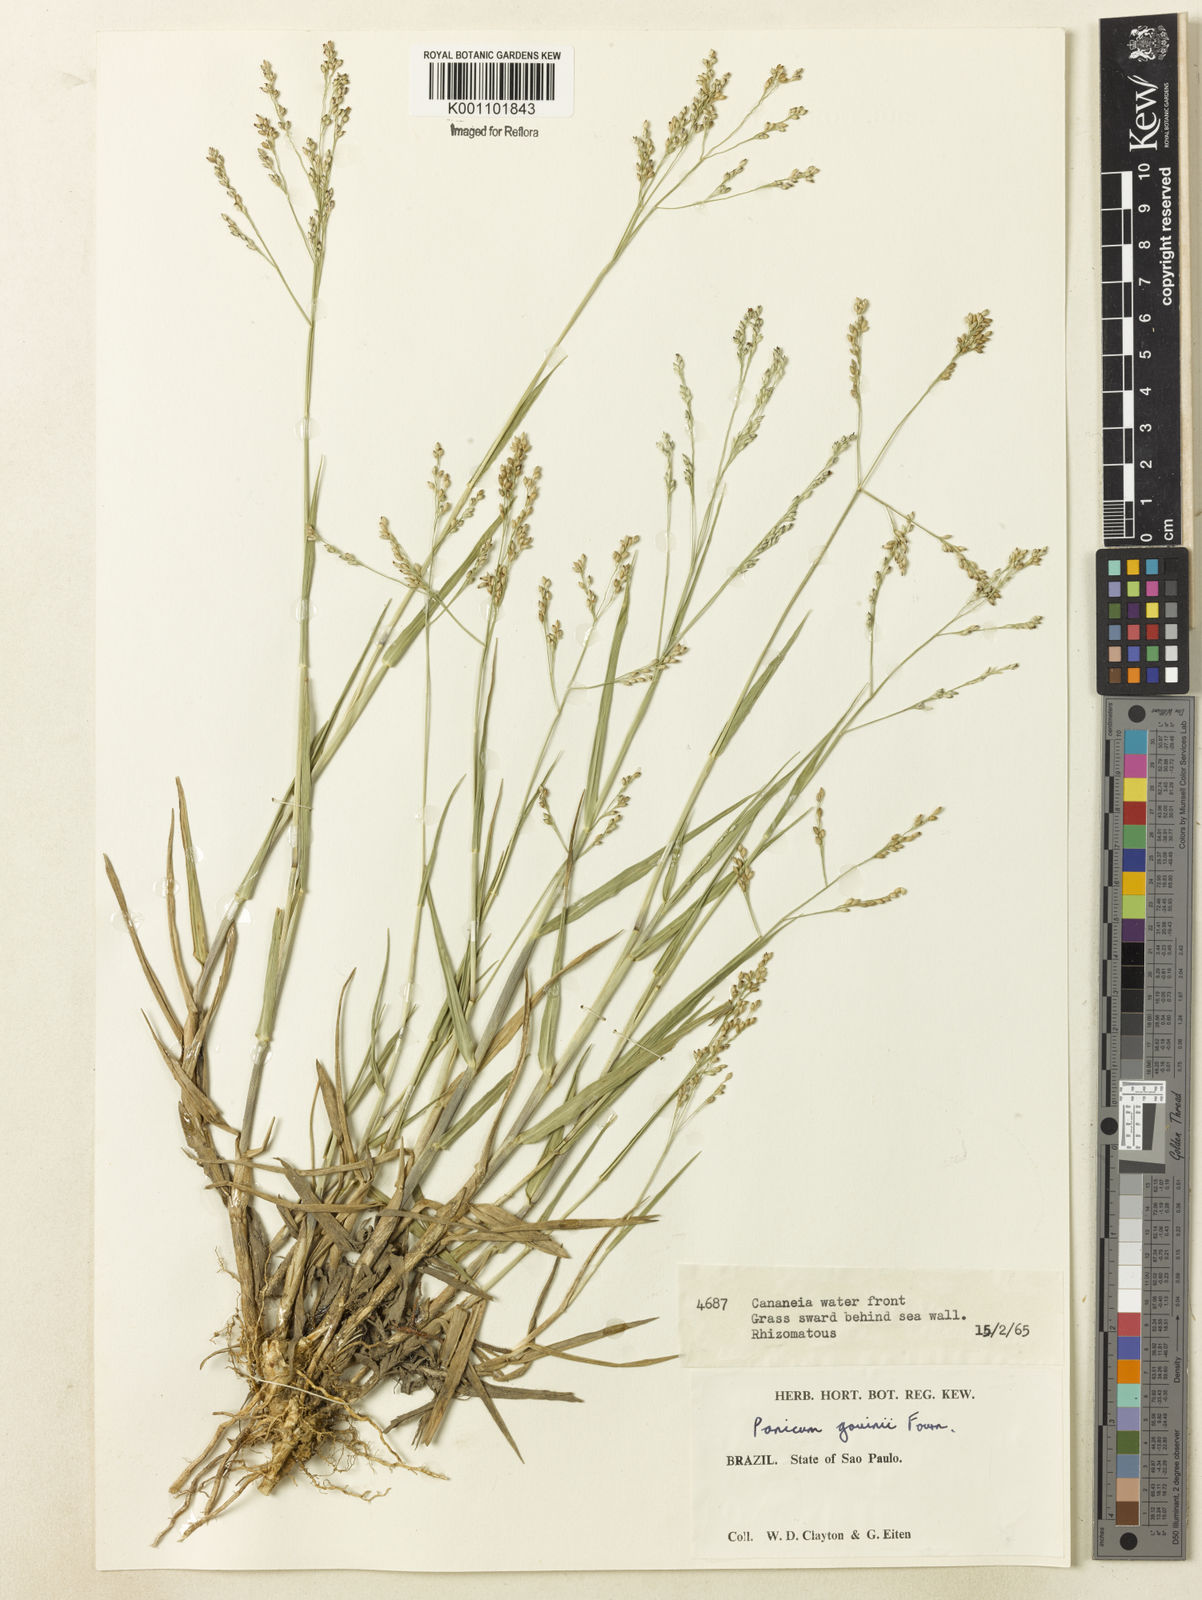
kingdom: Plantae
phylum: Tracheophyta
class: Liliopsida
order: Poales
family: Poaceae
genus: Panicum
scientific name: Panicum gouinii
